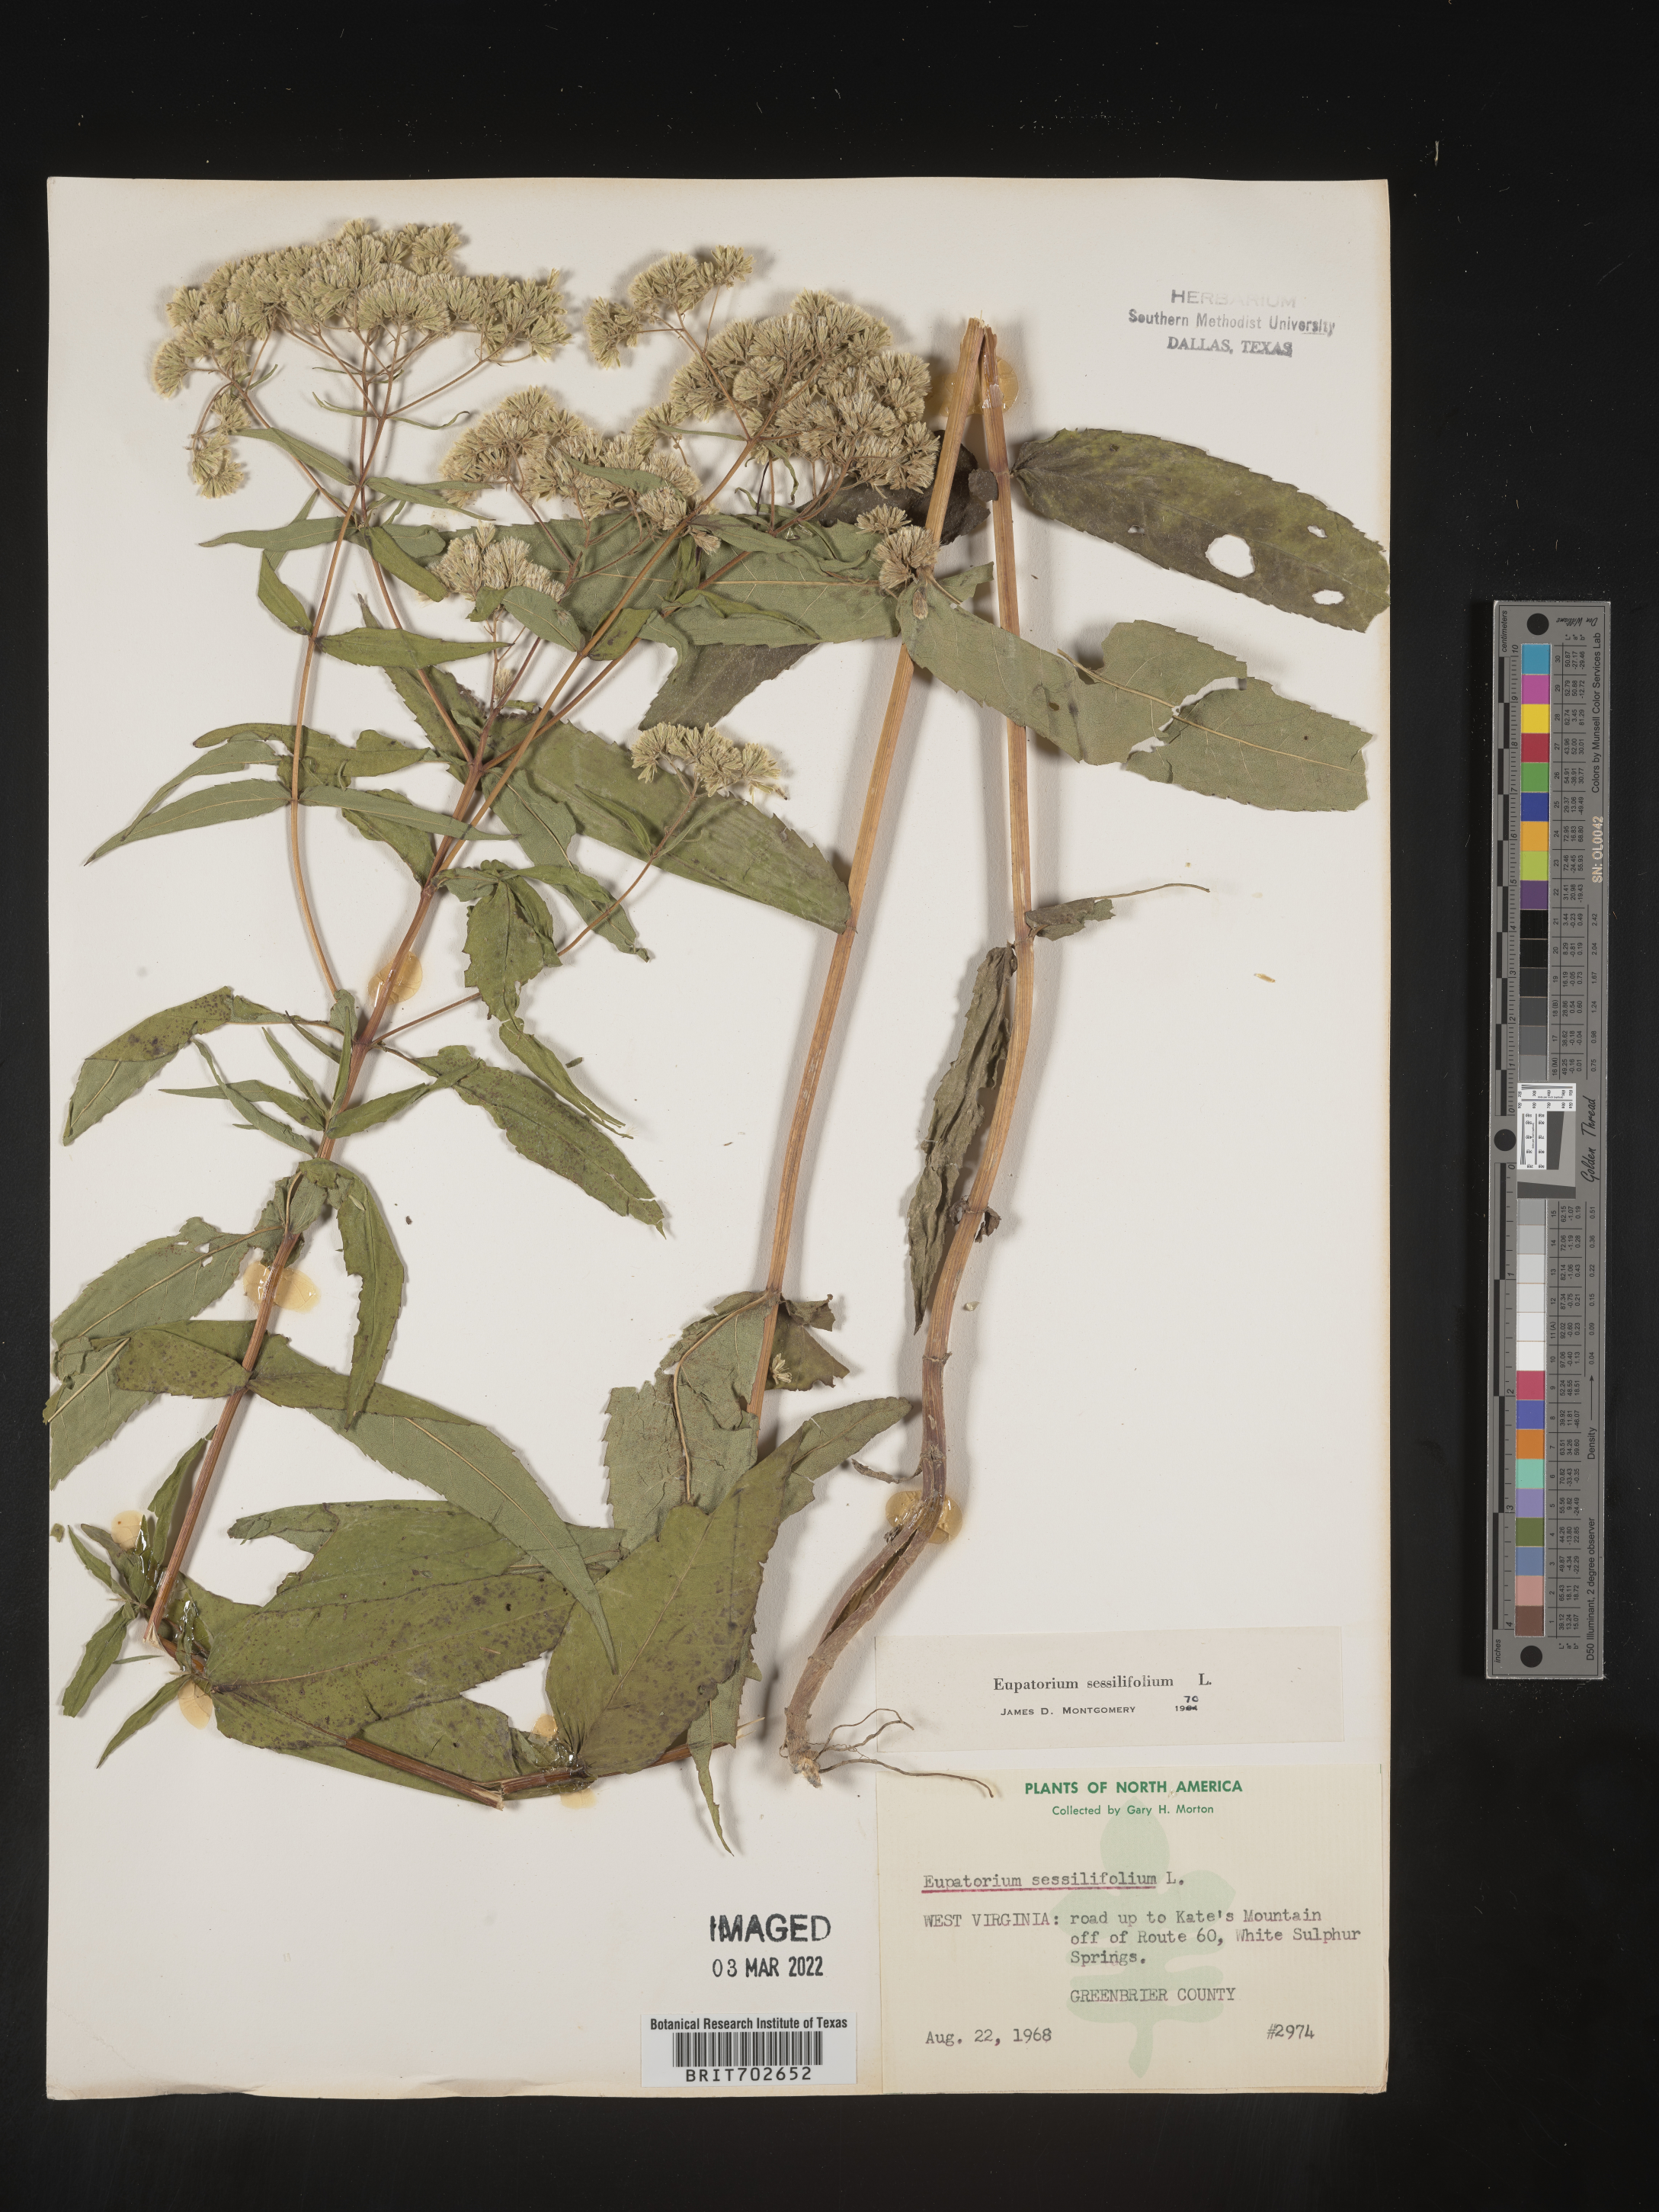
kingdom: Plantae
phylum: Tracheophyta
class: Magnoliopsida
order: Asterales
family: Asteraceae
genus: Eupatorium
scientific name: Eupatorium sessilifolium
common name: Upland boneset
